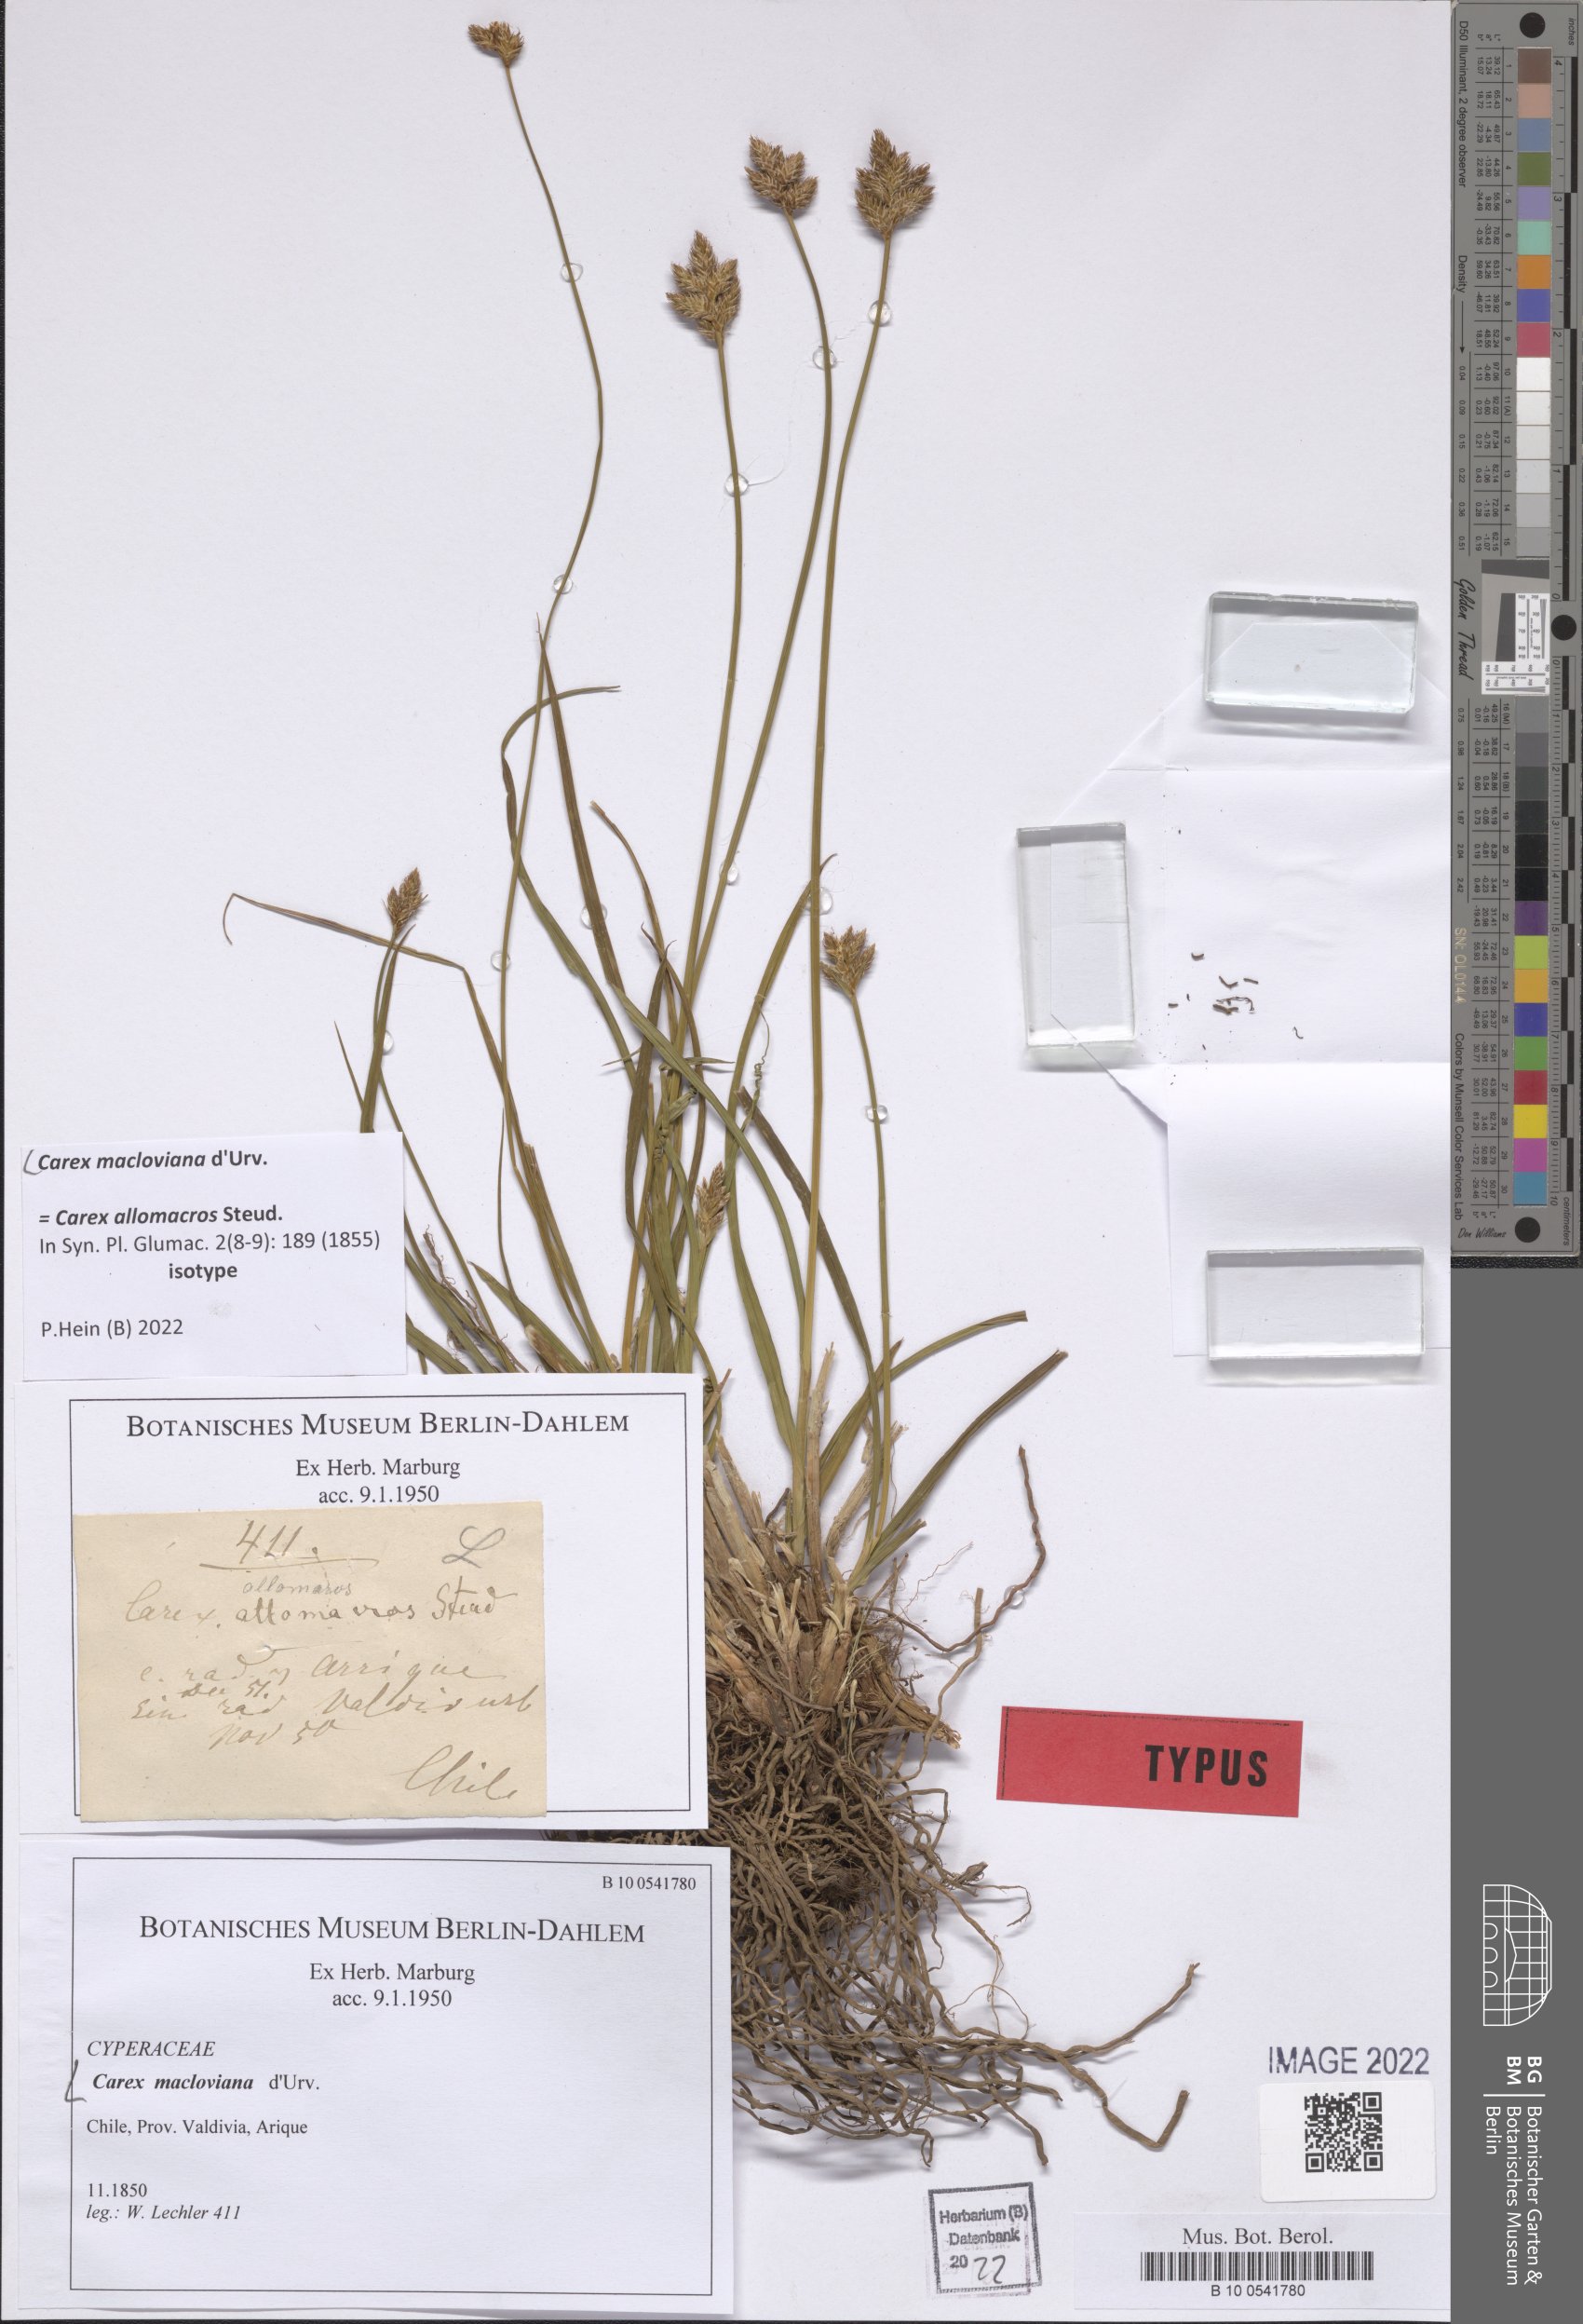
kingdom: Plantae
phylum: Tracheophyta
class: Liliopsida
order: Poales
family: Cyperaceae
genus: Carex
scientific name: Carex macloviana
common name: Falkland island sedge
